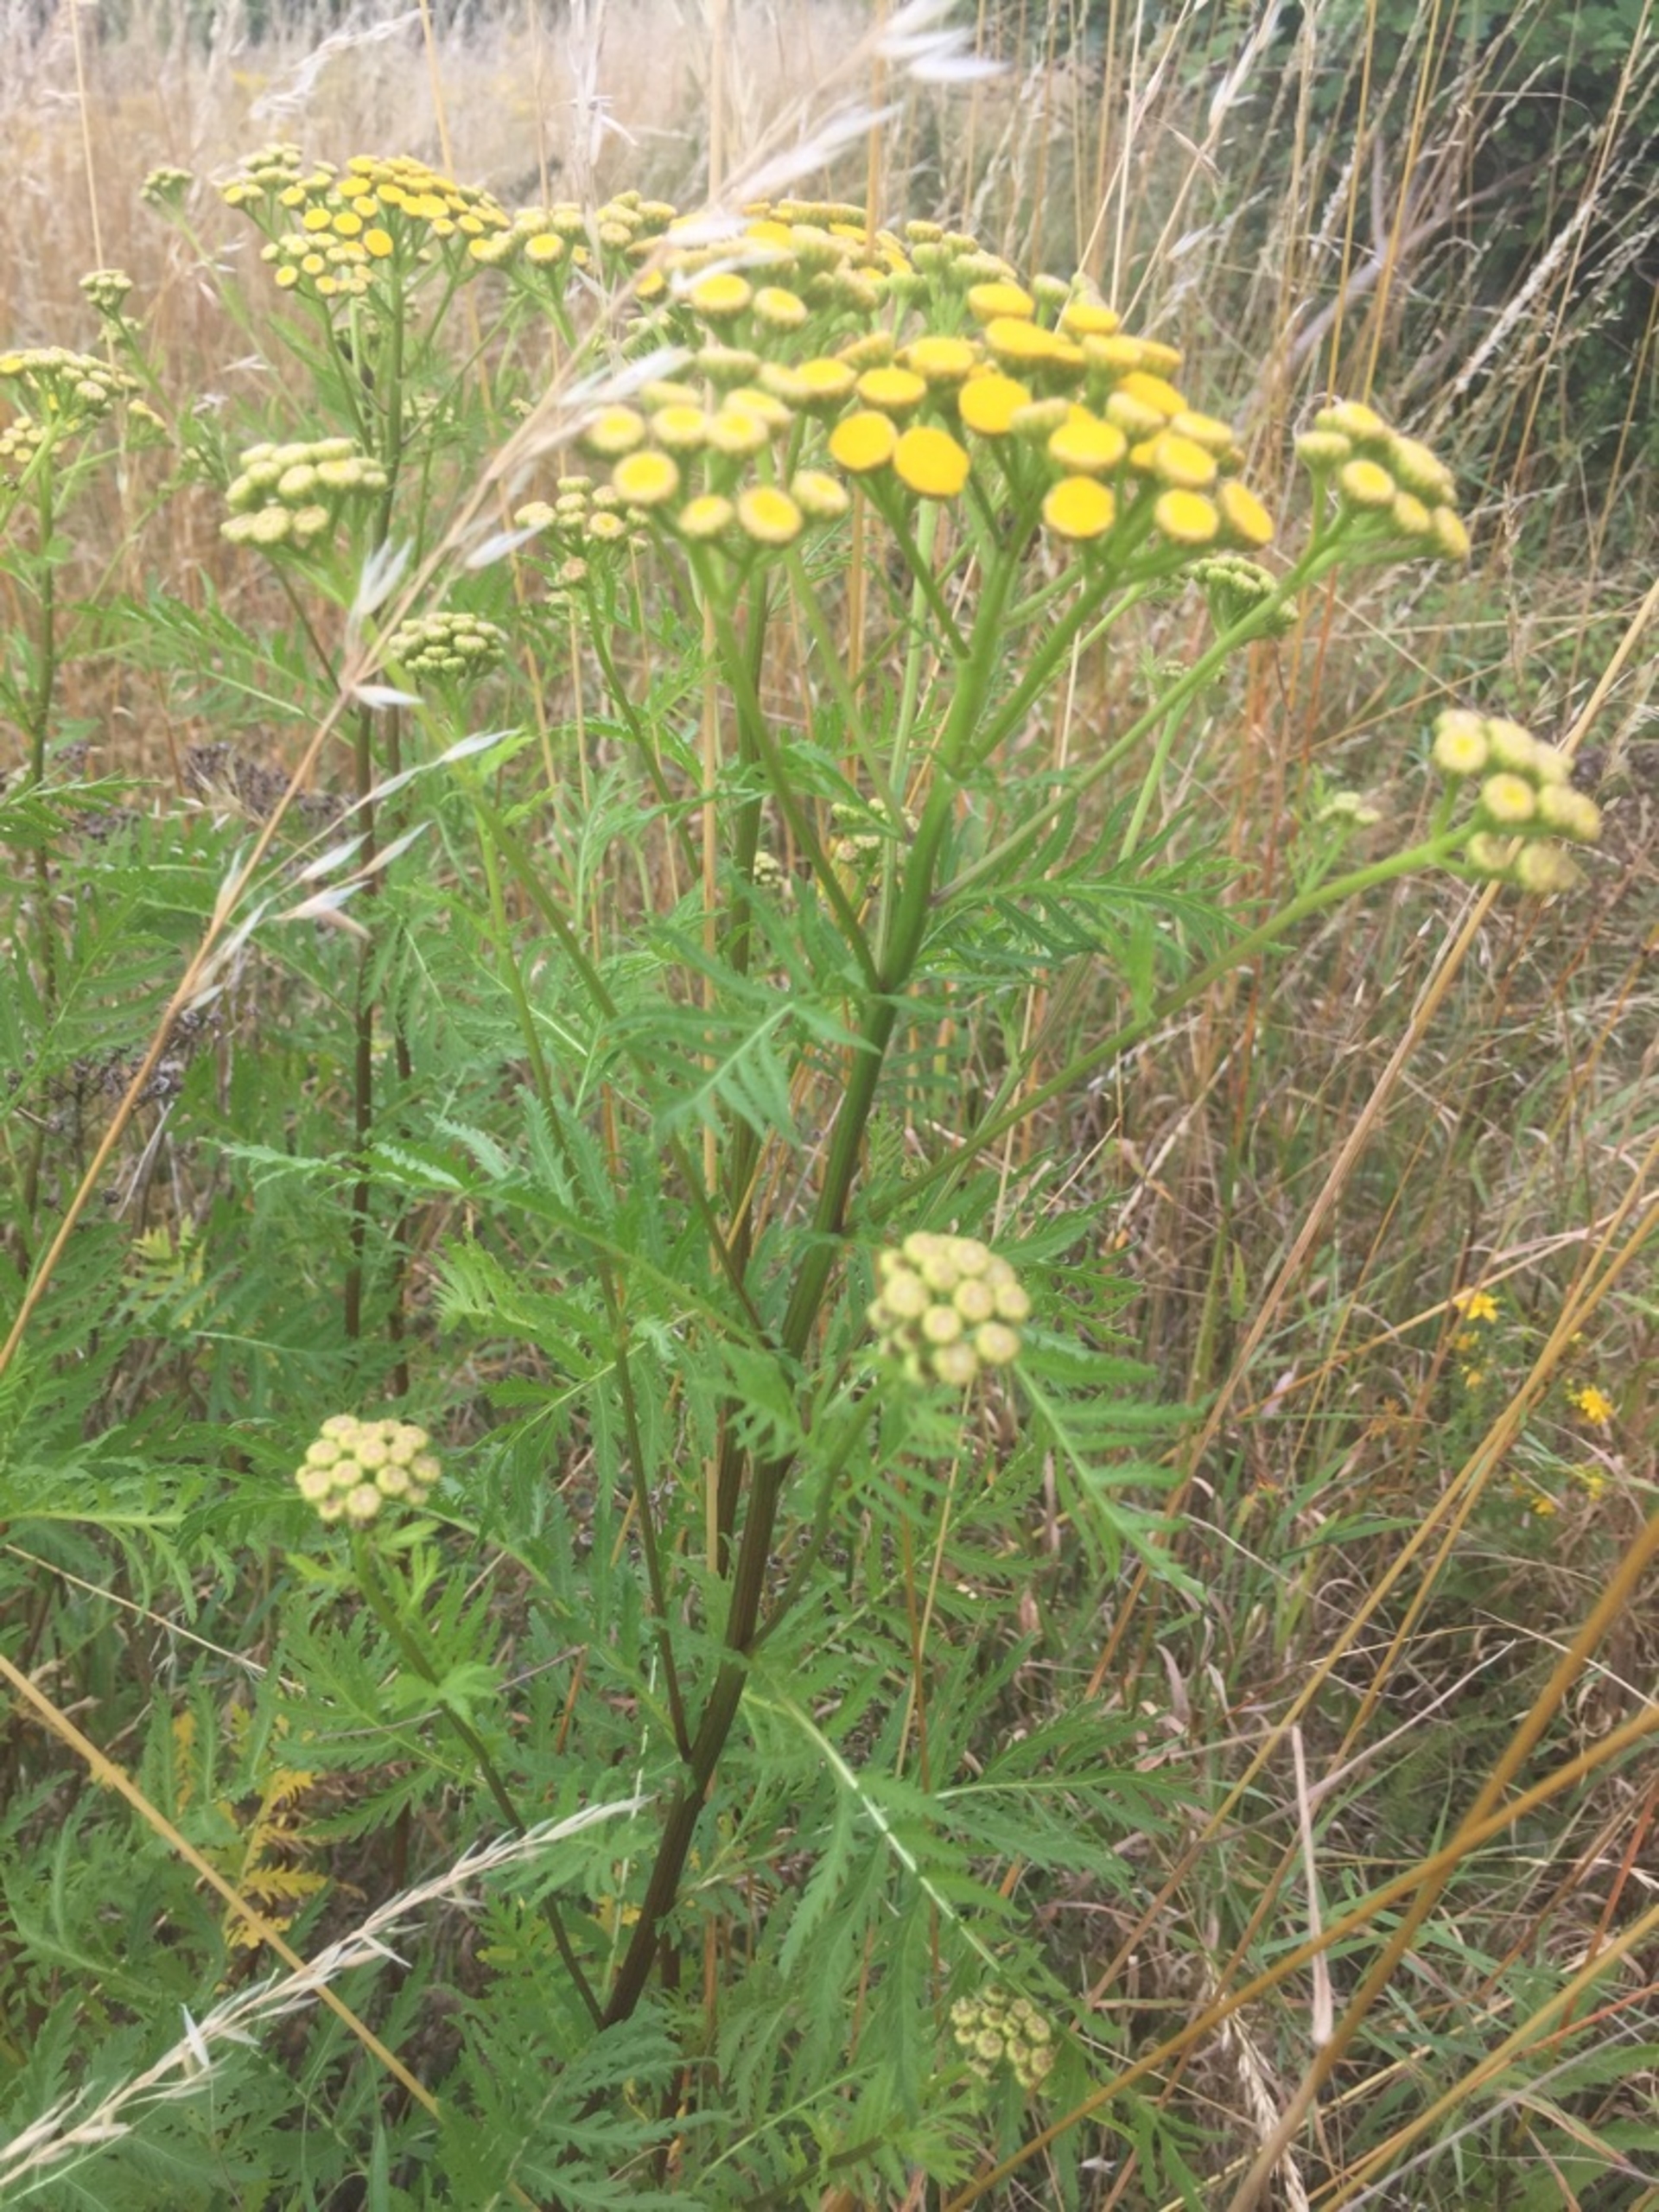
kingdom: Plantae
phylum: Tracheophyta
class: Magnoliopsida
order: Asterales
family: Asteraceae
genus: Tanacetum
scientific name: Tanacetum vulgare
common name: Rejnfan
